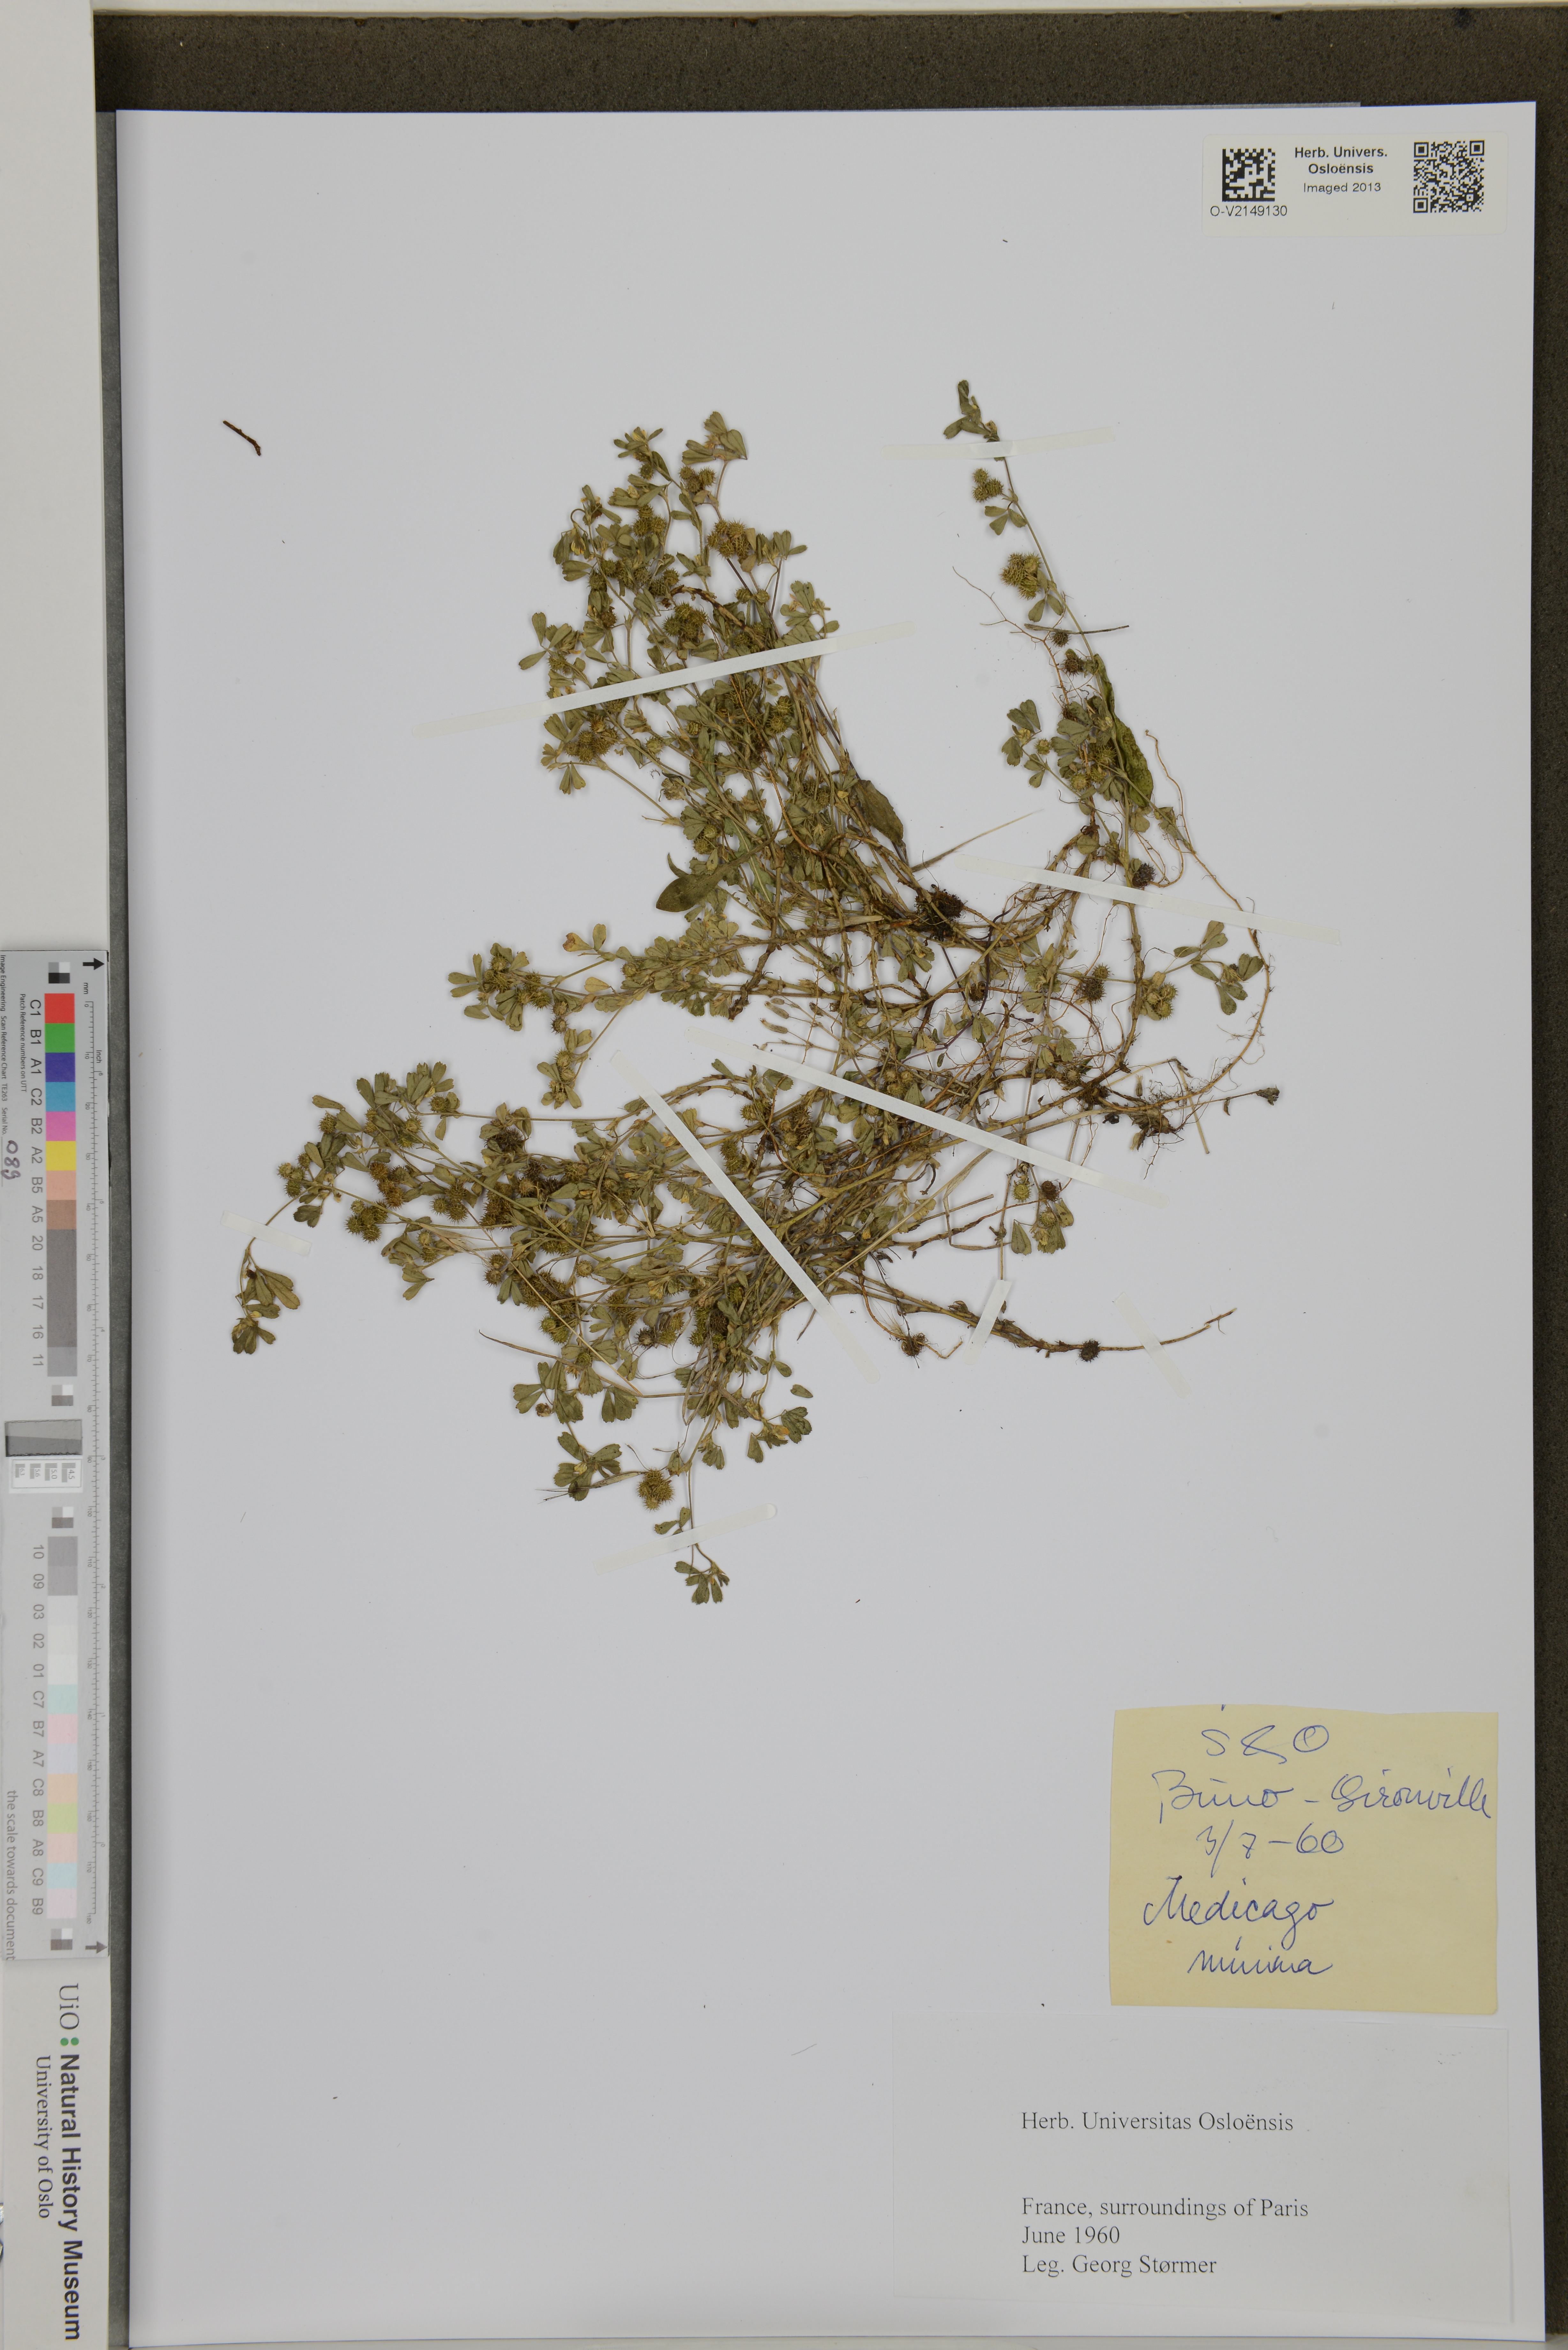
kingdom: Plantae
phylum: Tracheophyta
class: Magnoliopsida
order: Fabales
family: Fabaceae
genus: Medicago
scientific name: Medicago minima
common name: Little bur-clover
